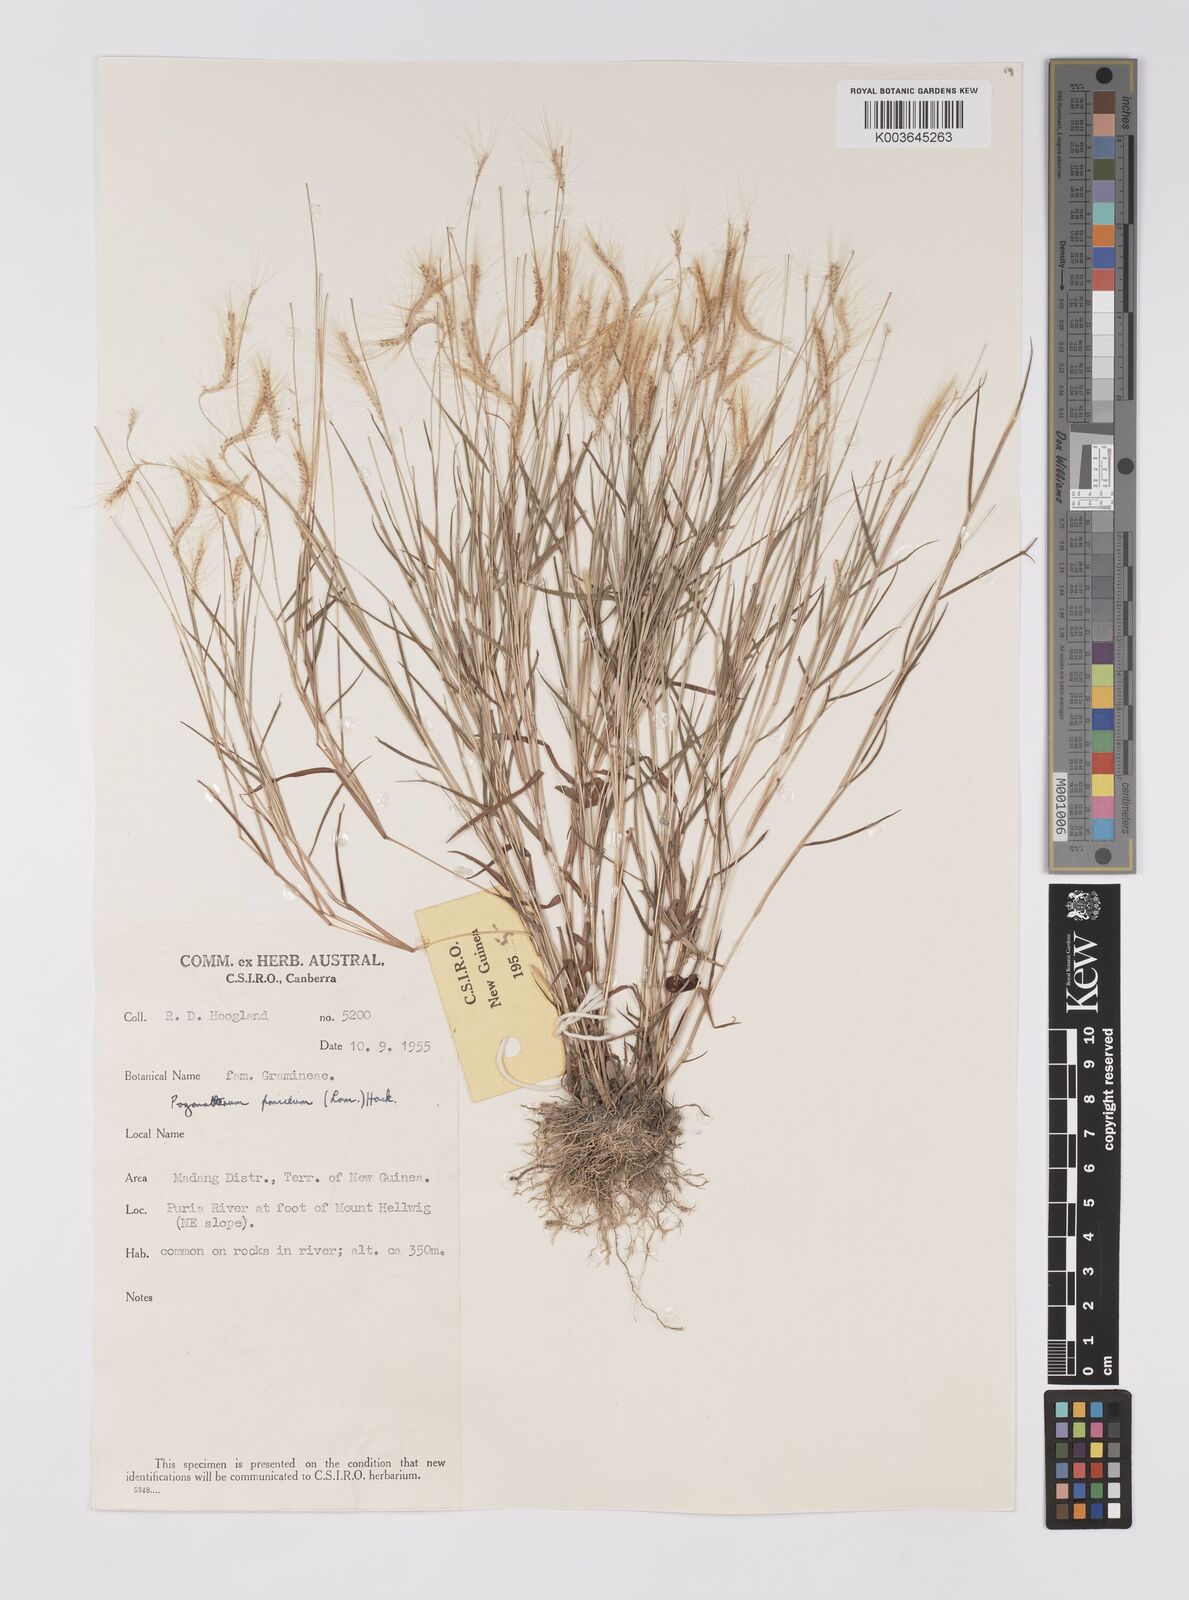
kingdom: Plantae
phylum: Tracheophyta
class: Liliopsida
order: Poales
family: Poaceae
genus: Pogonatherum
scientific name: Pogonatherum crinitum
